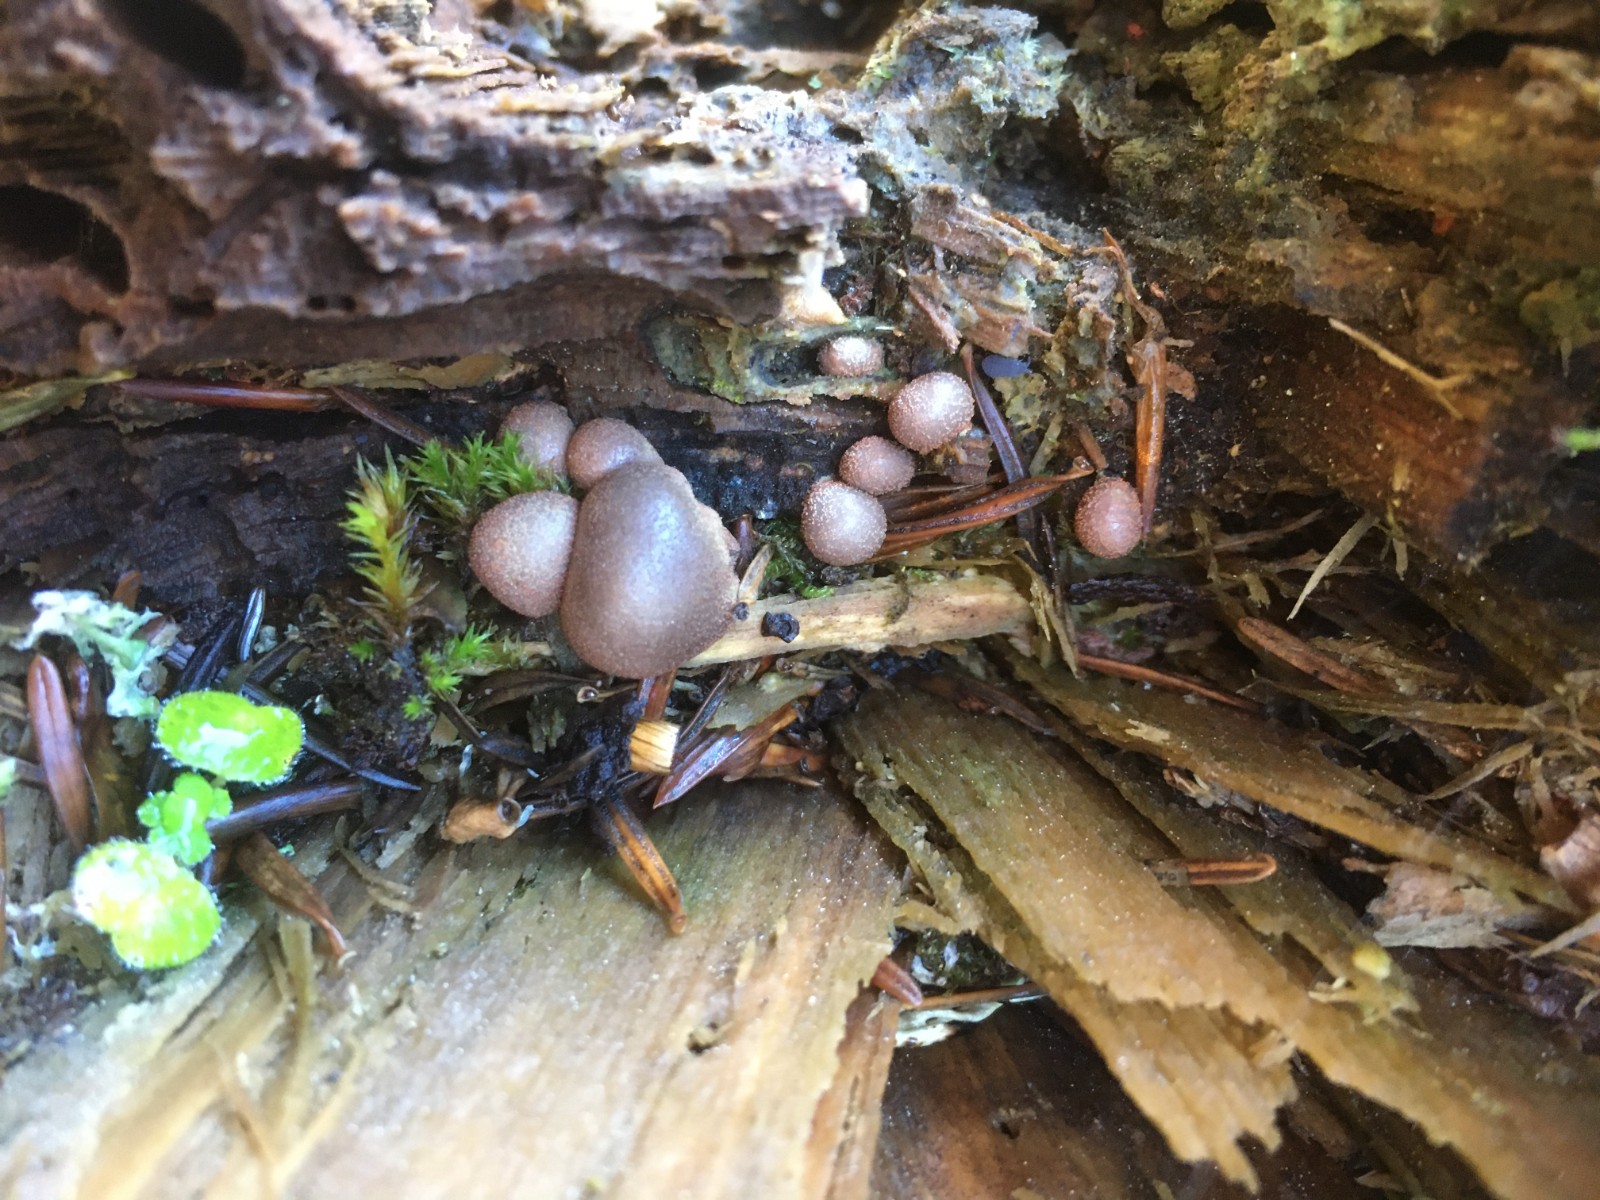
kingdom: Protozoa
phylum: Mycetozoa
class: Myxomycetes
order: Cribrariales
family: Tubiferaceae
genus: Lycogala
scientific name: Lycogala epidendrum
